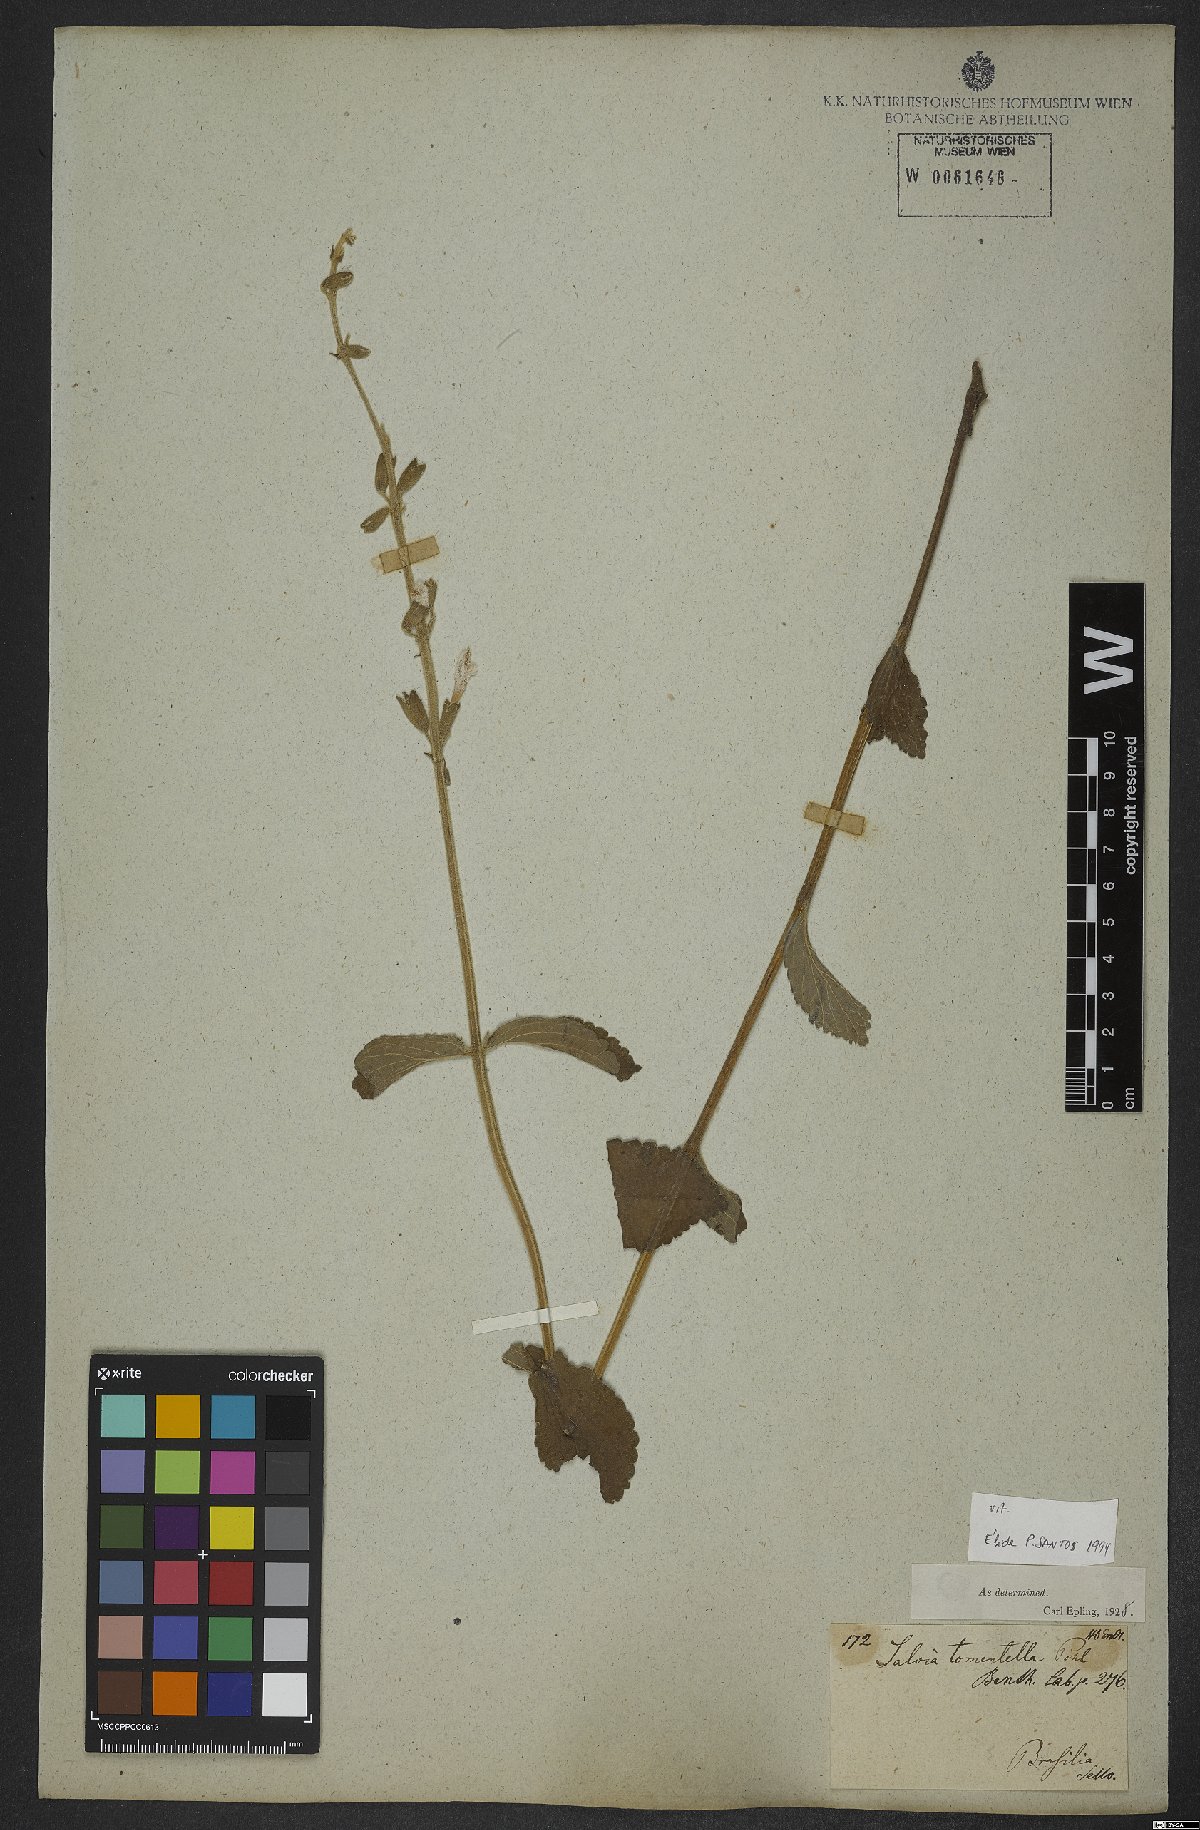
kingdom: Plantae
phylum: Tracheophyta
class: Magnoliopsida
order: Lamiales
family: Lamiaceae
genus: Salvia
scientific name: Salvia tomentella
